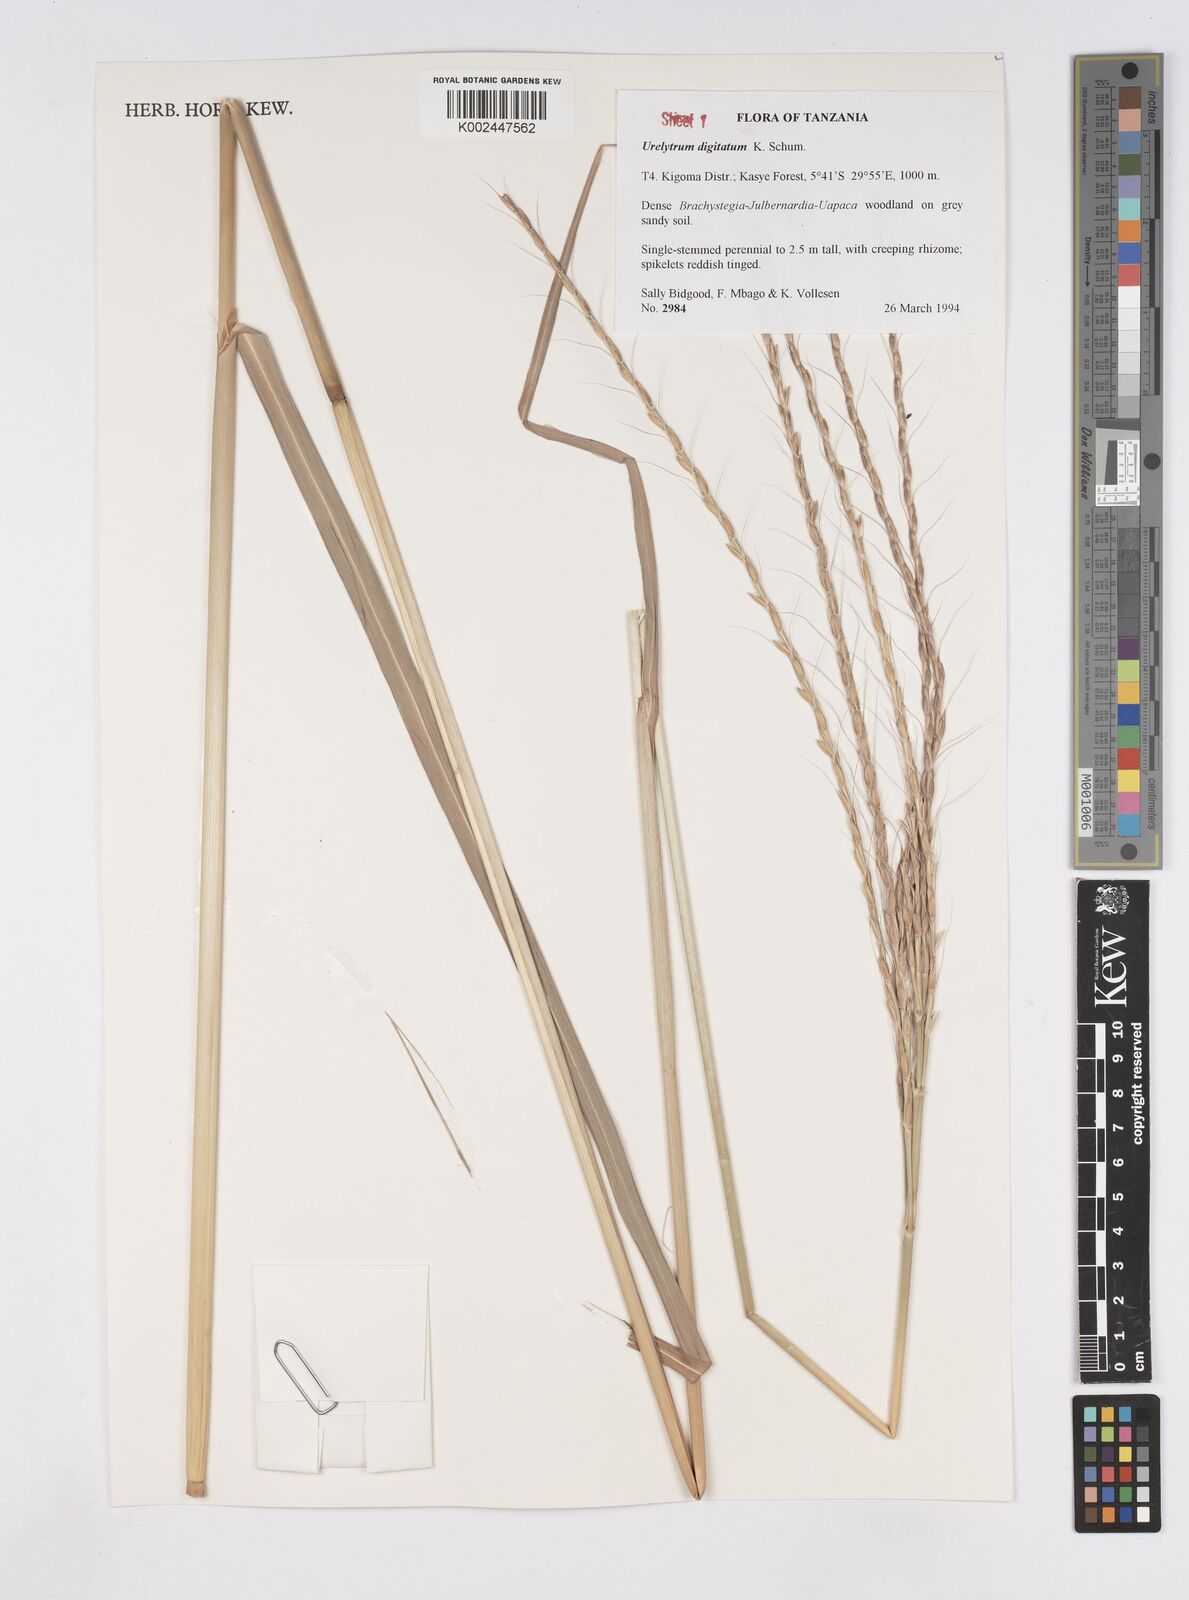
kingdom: Plantae
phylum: Tracheophyta
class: Liliopsida
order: Poales
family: Poaceae
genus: Urelytrum
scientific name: Urelytrum digitatum
